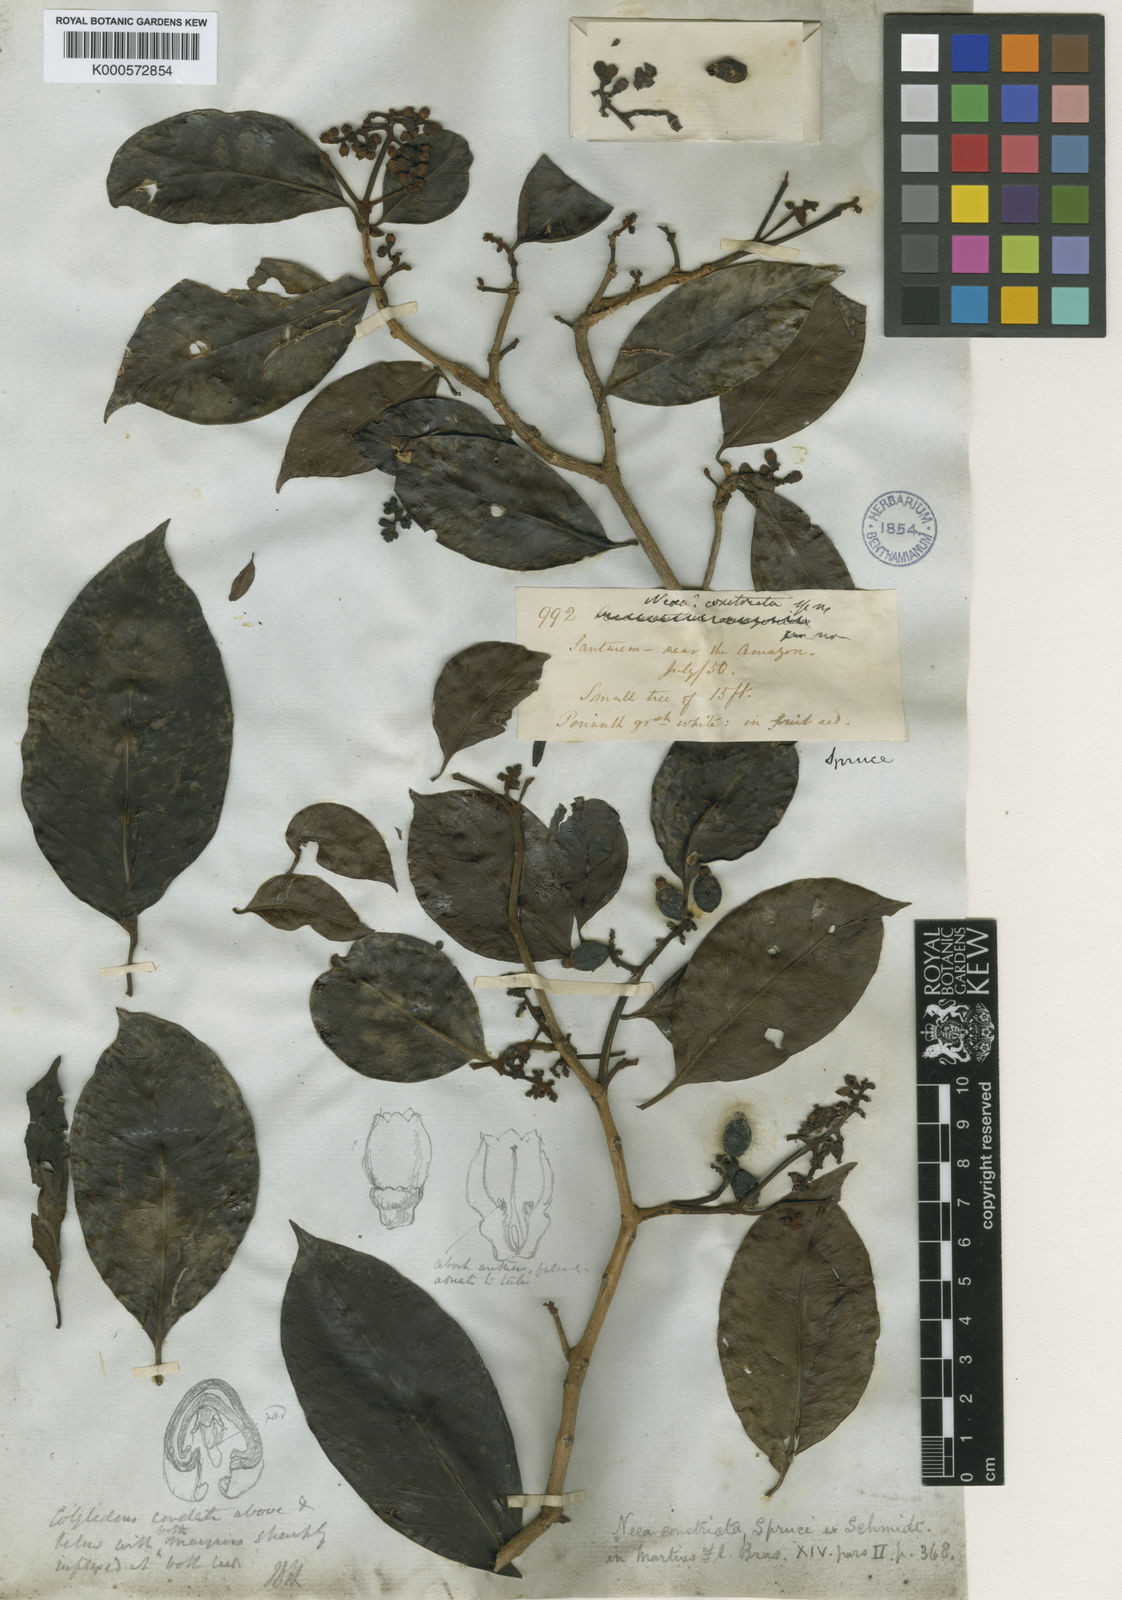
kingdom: Plantae
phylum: Tracheophyta
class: Magnoliopsida
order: Caryophyllales
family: Nyctaginaceae
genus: Neea
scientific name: Neea constricta
